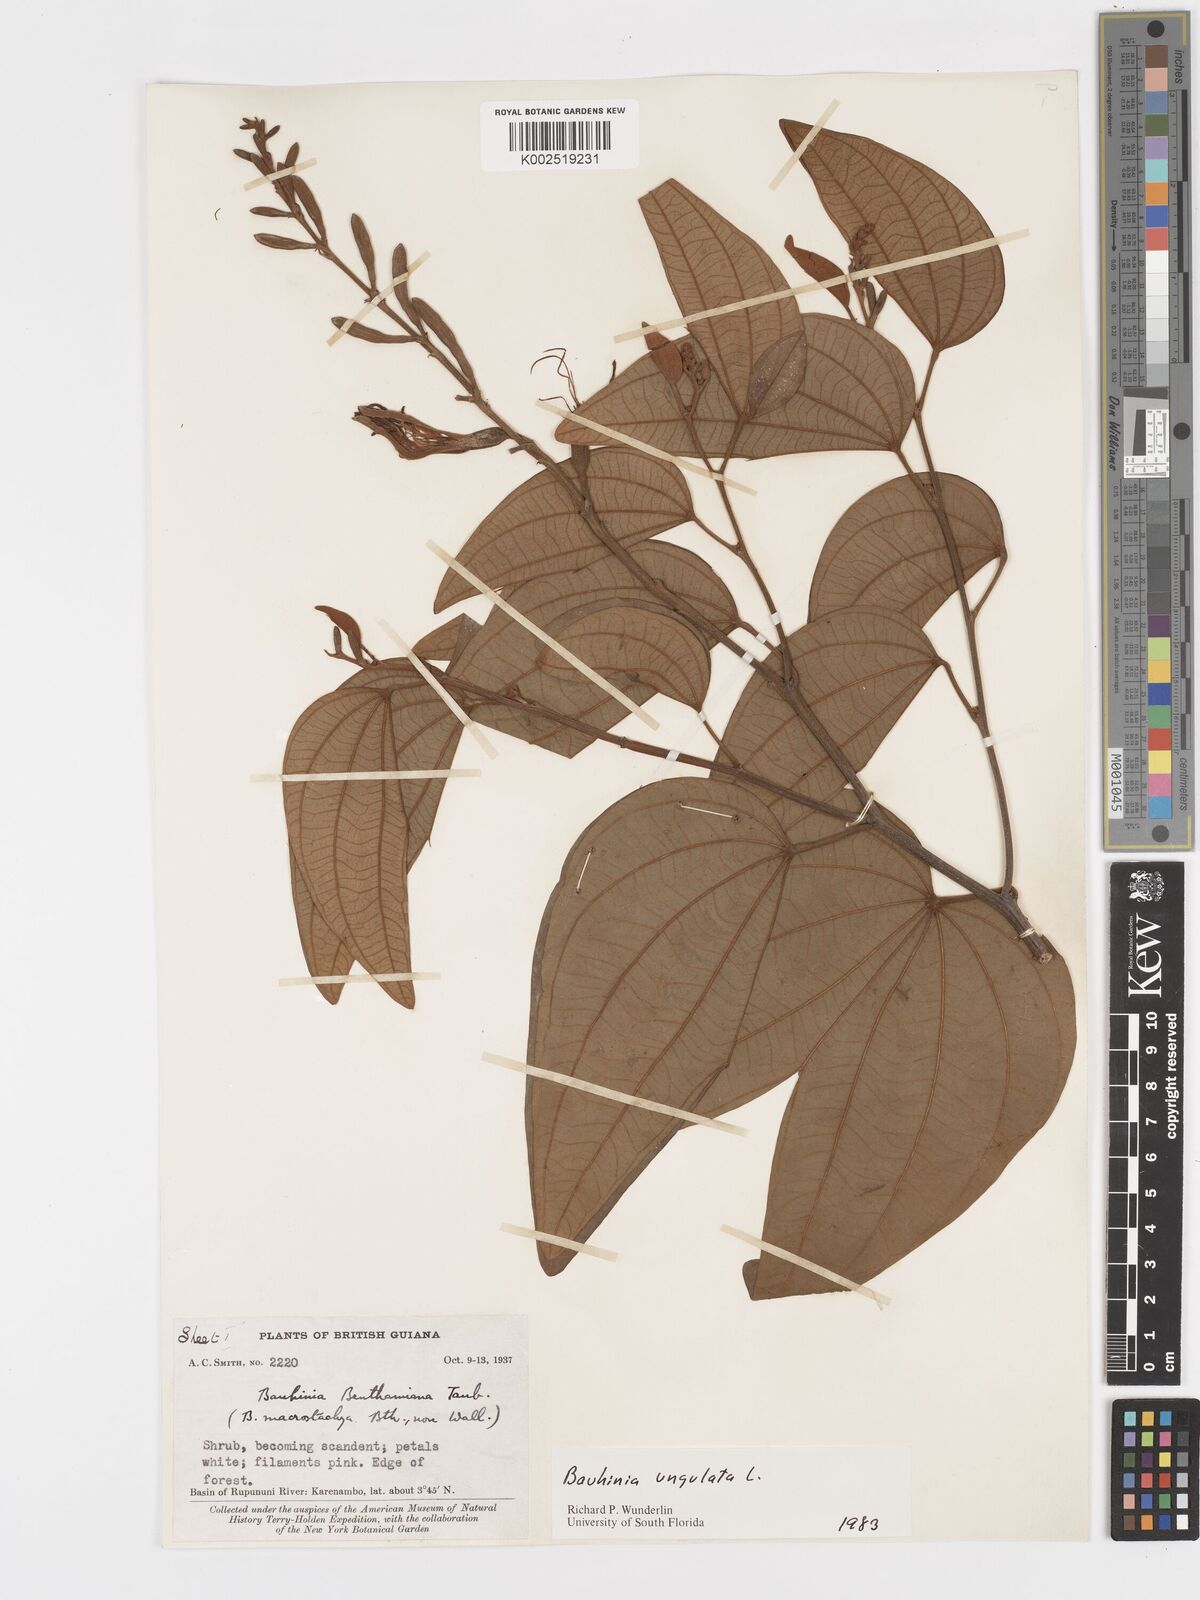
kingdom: Plantae
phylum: Tracheophyta
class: Magnoliopsida
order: Fabales
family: Fabaceae
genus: Bauhinia
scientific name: Bauhinia ungulata
